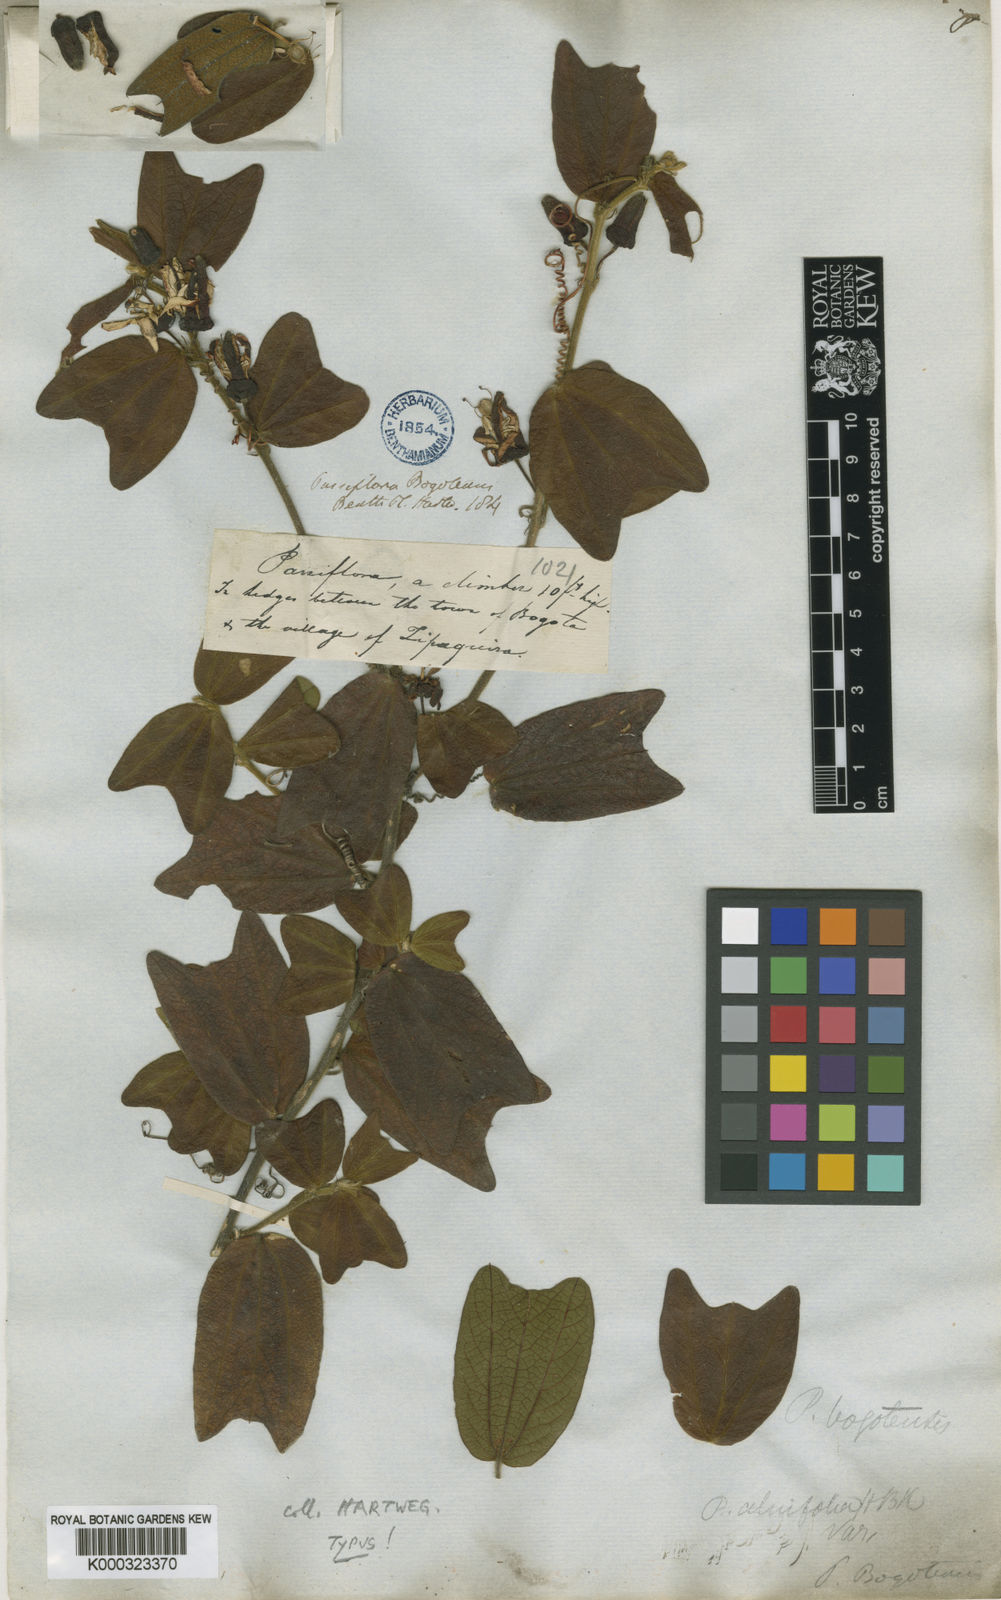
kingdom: Plantae
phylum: Tracheophyta
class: Magnoliopsida
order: Malpighiales
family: Passifloraceae
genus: Passiflora
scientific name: Passiflora
